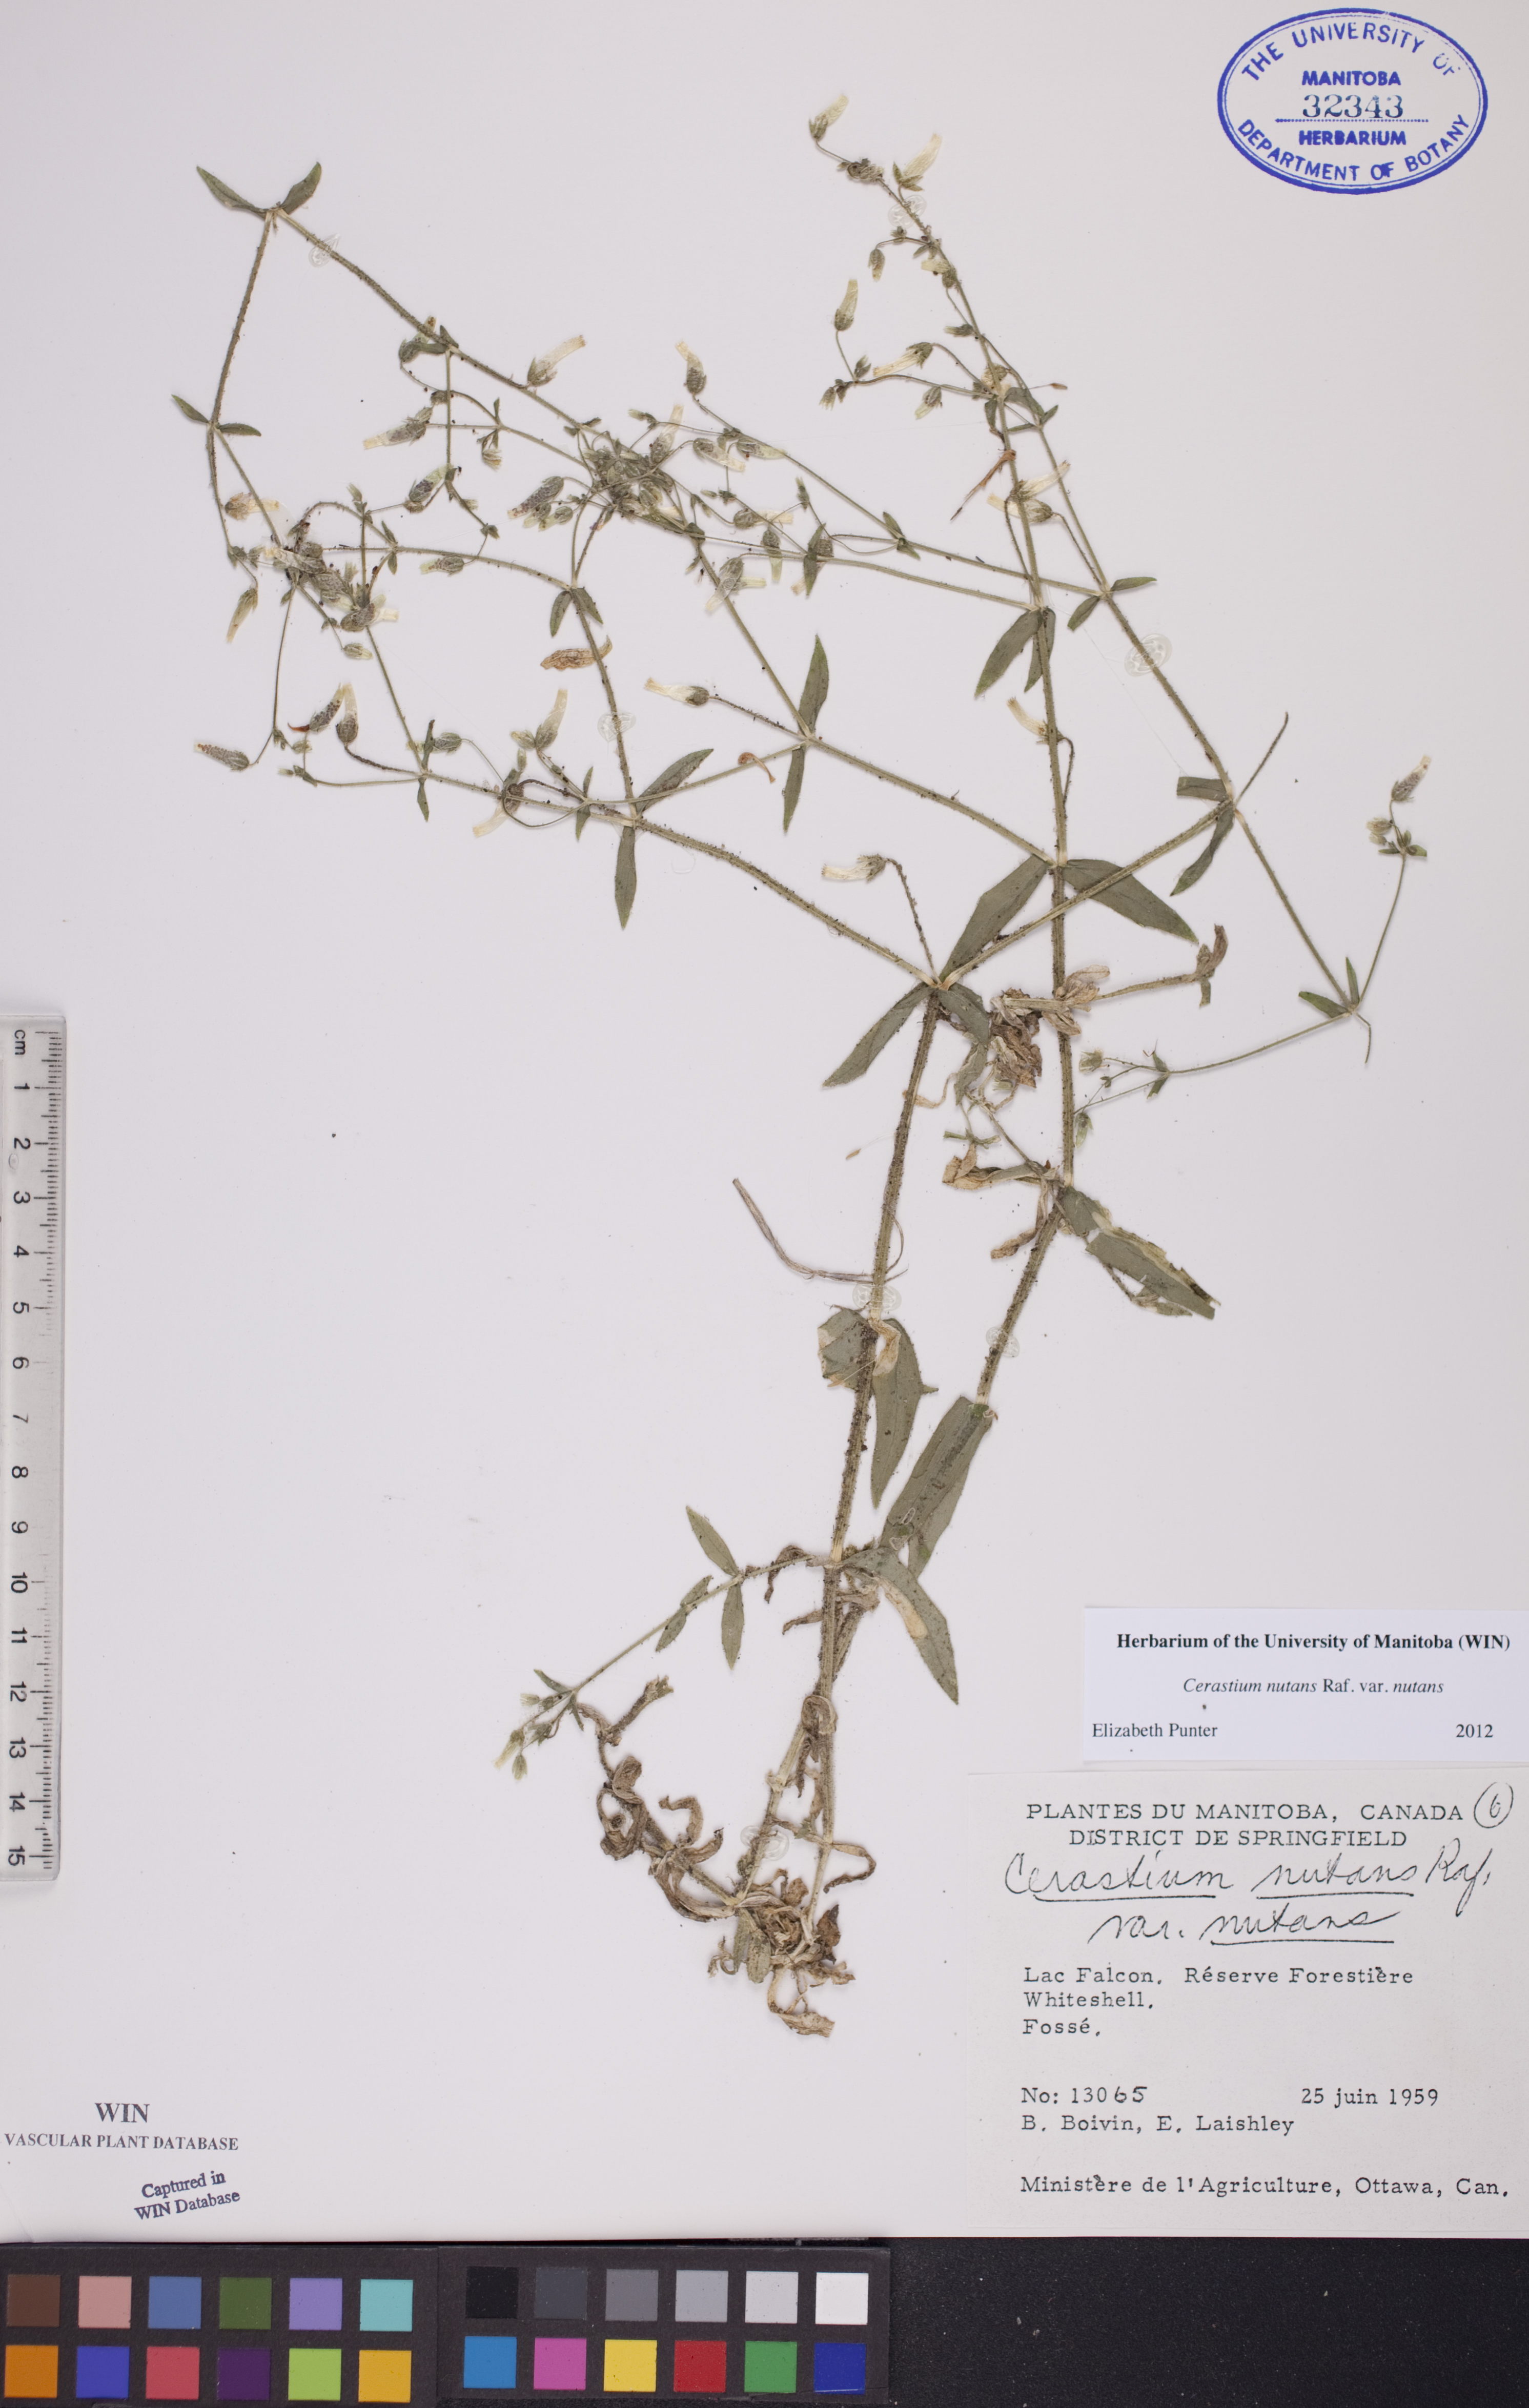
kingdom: Plantae
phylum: Tracheophyta
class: Magnoliopsida
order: Caryophyllales
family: Caryophyllaceae
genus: Cerastium
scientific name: Cerastium nutans
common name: Long-stalked chickweed
